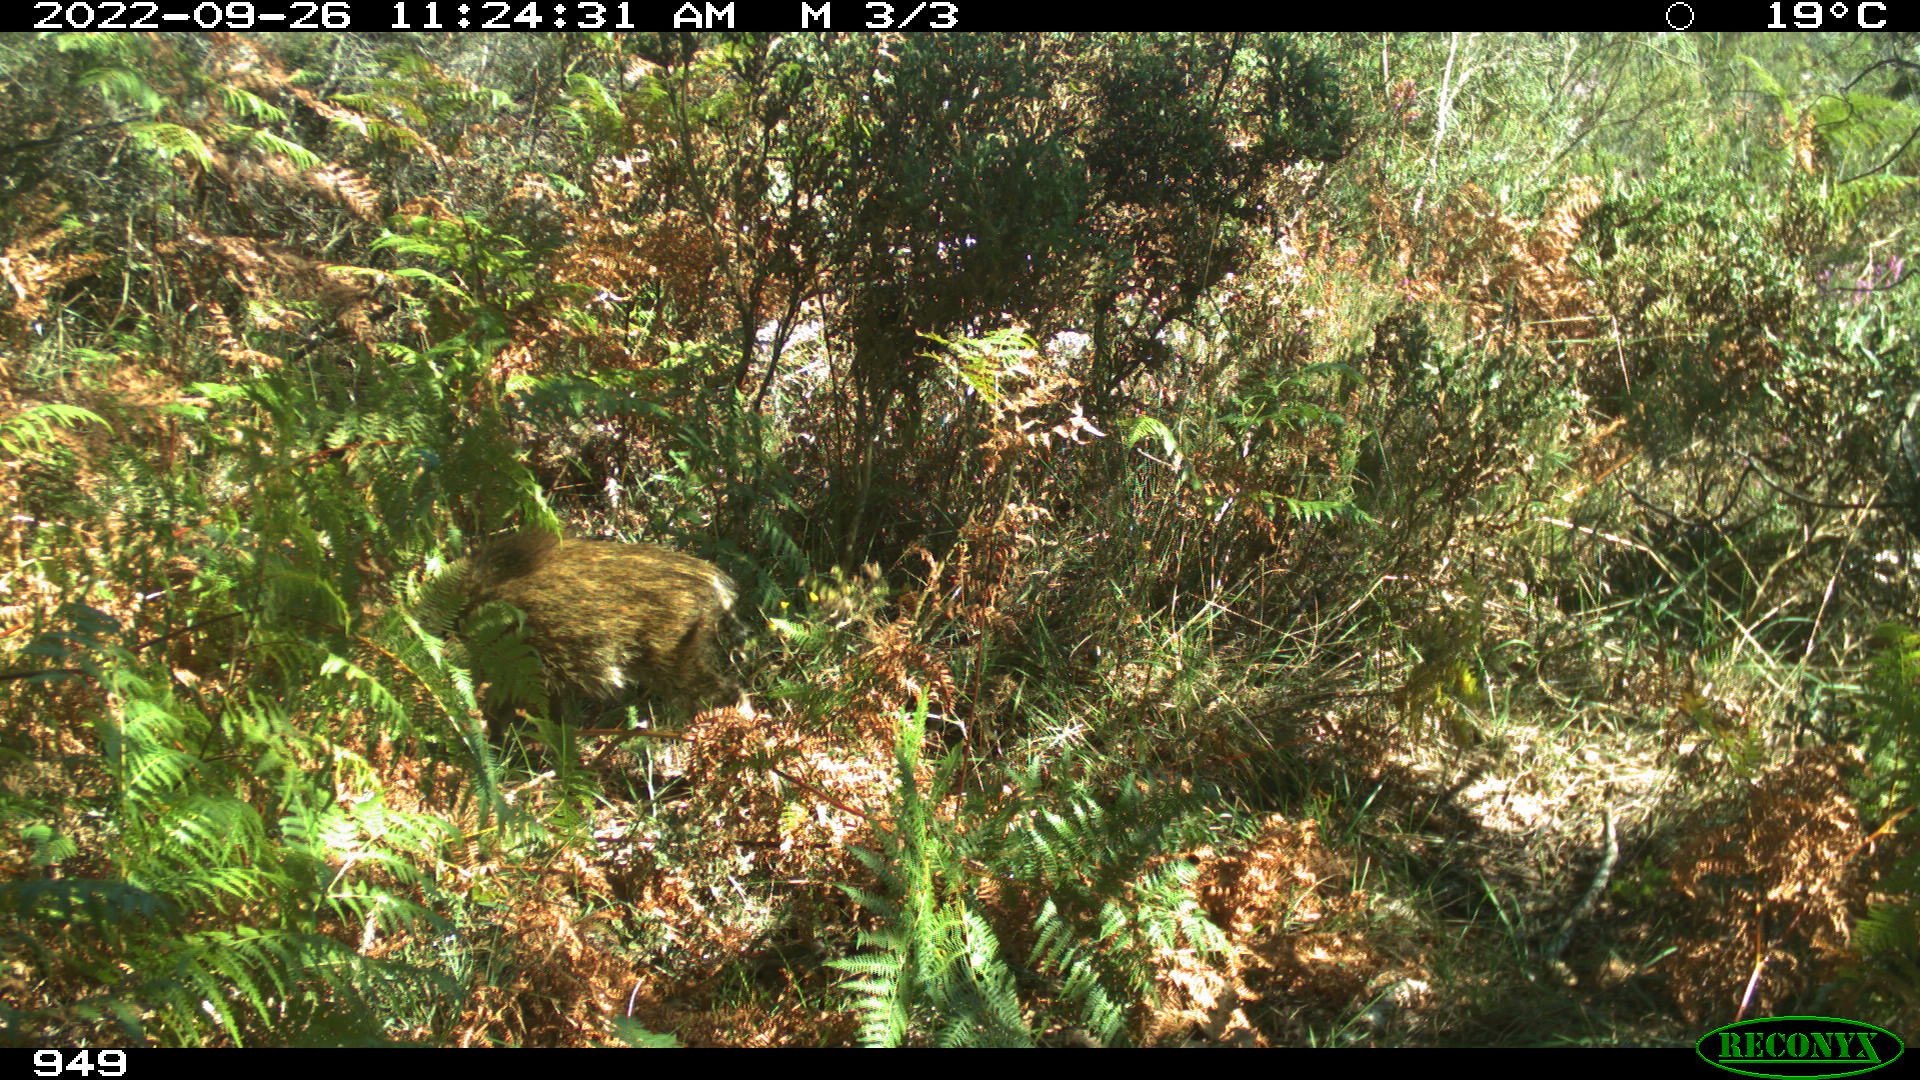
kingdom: Animalia
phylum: Chordata
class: Mammalia
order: Artiodactyla
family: Suidae
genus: Sus
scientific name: Sus scrofa
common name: Wild boar
